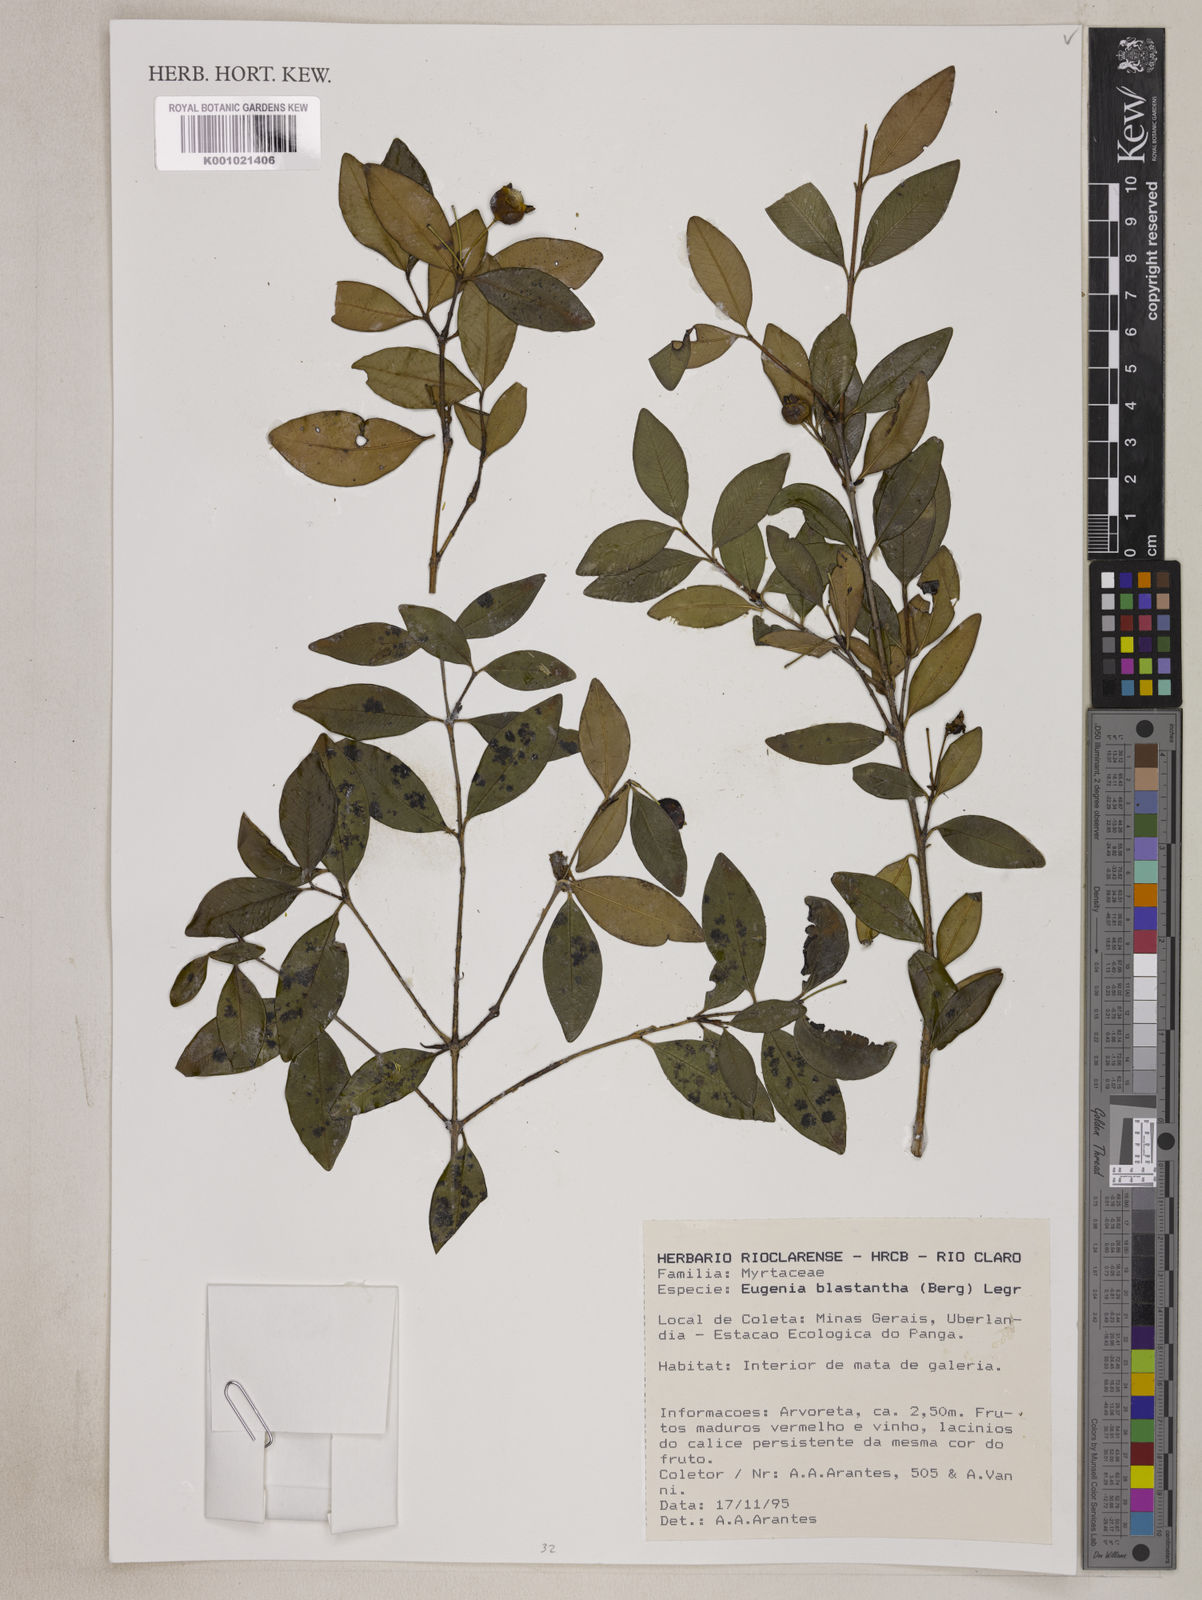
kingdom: Plantae
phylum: Tracheophyta
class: Magnoliopsida
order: Myrtales
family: Myrtaceae
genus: Eugenia
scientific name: Eugenia blastantha
